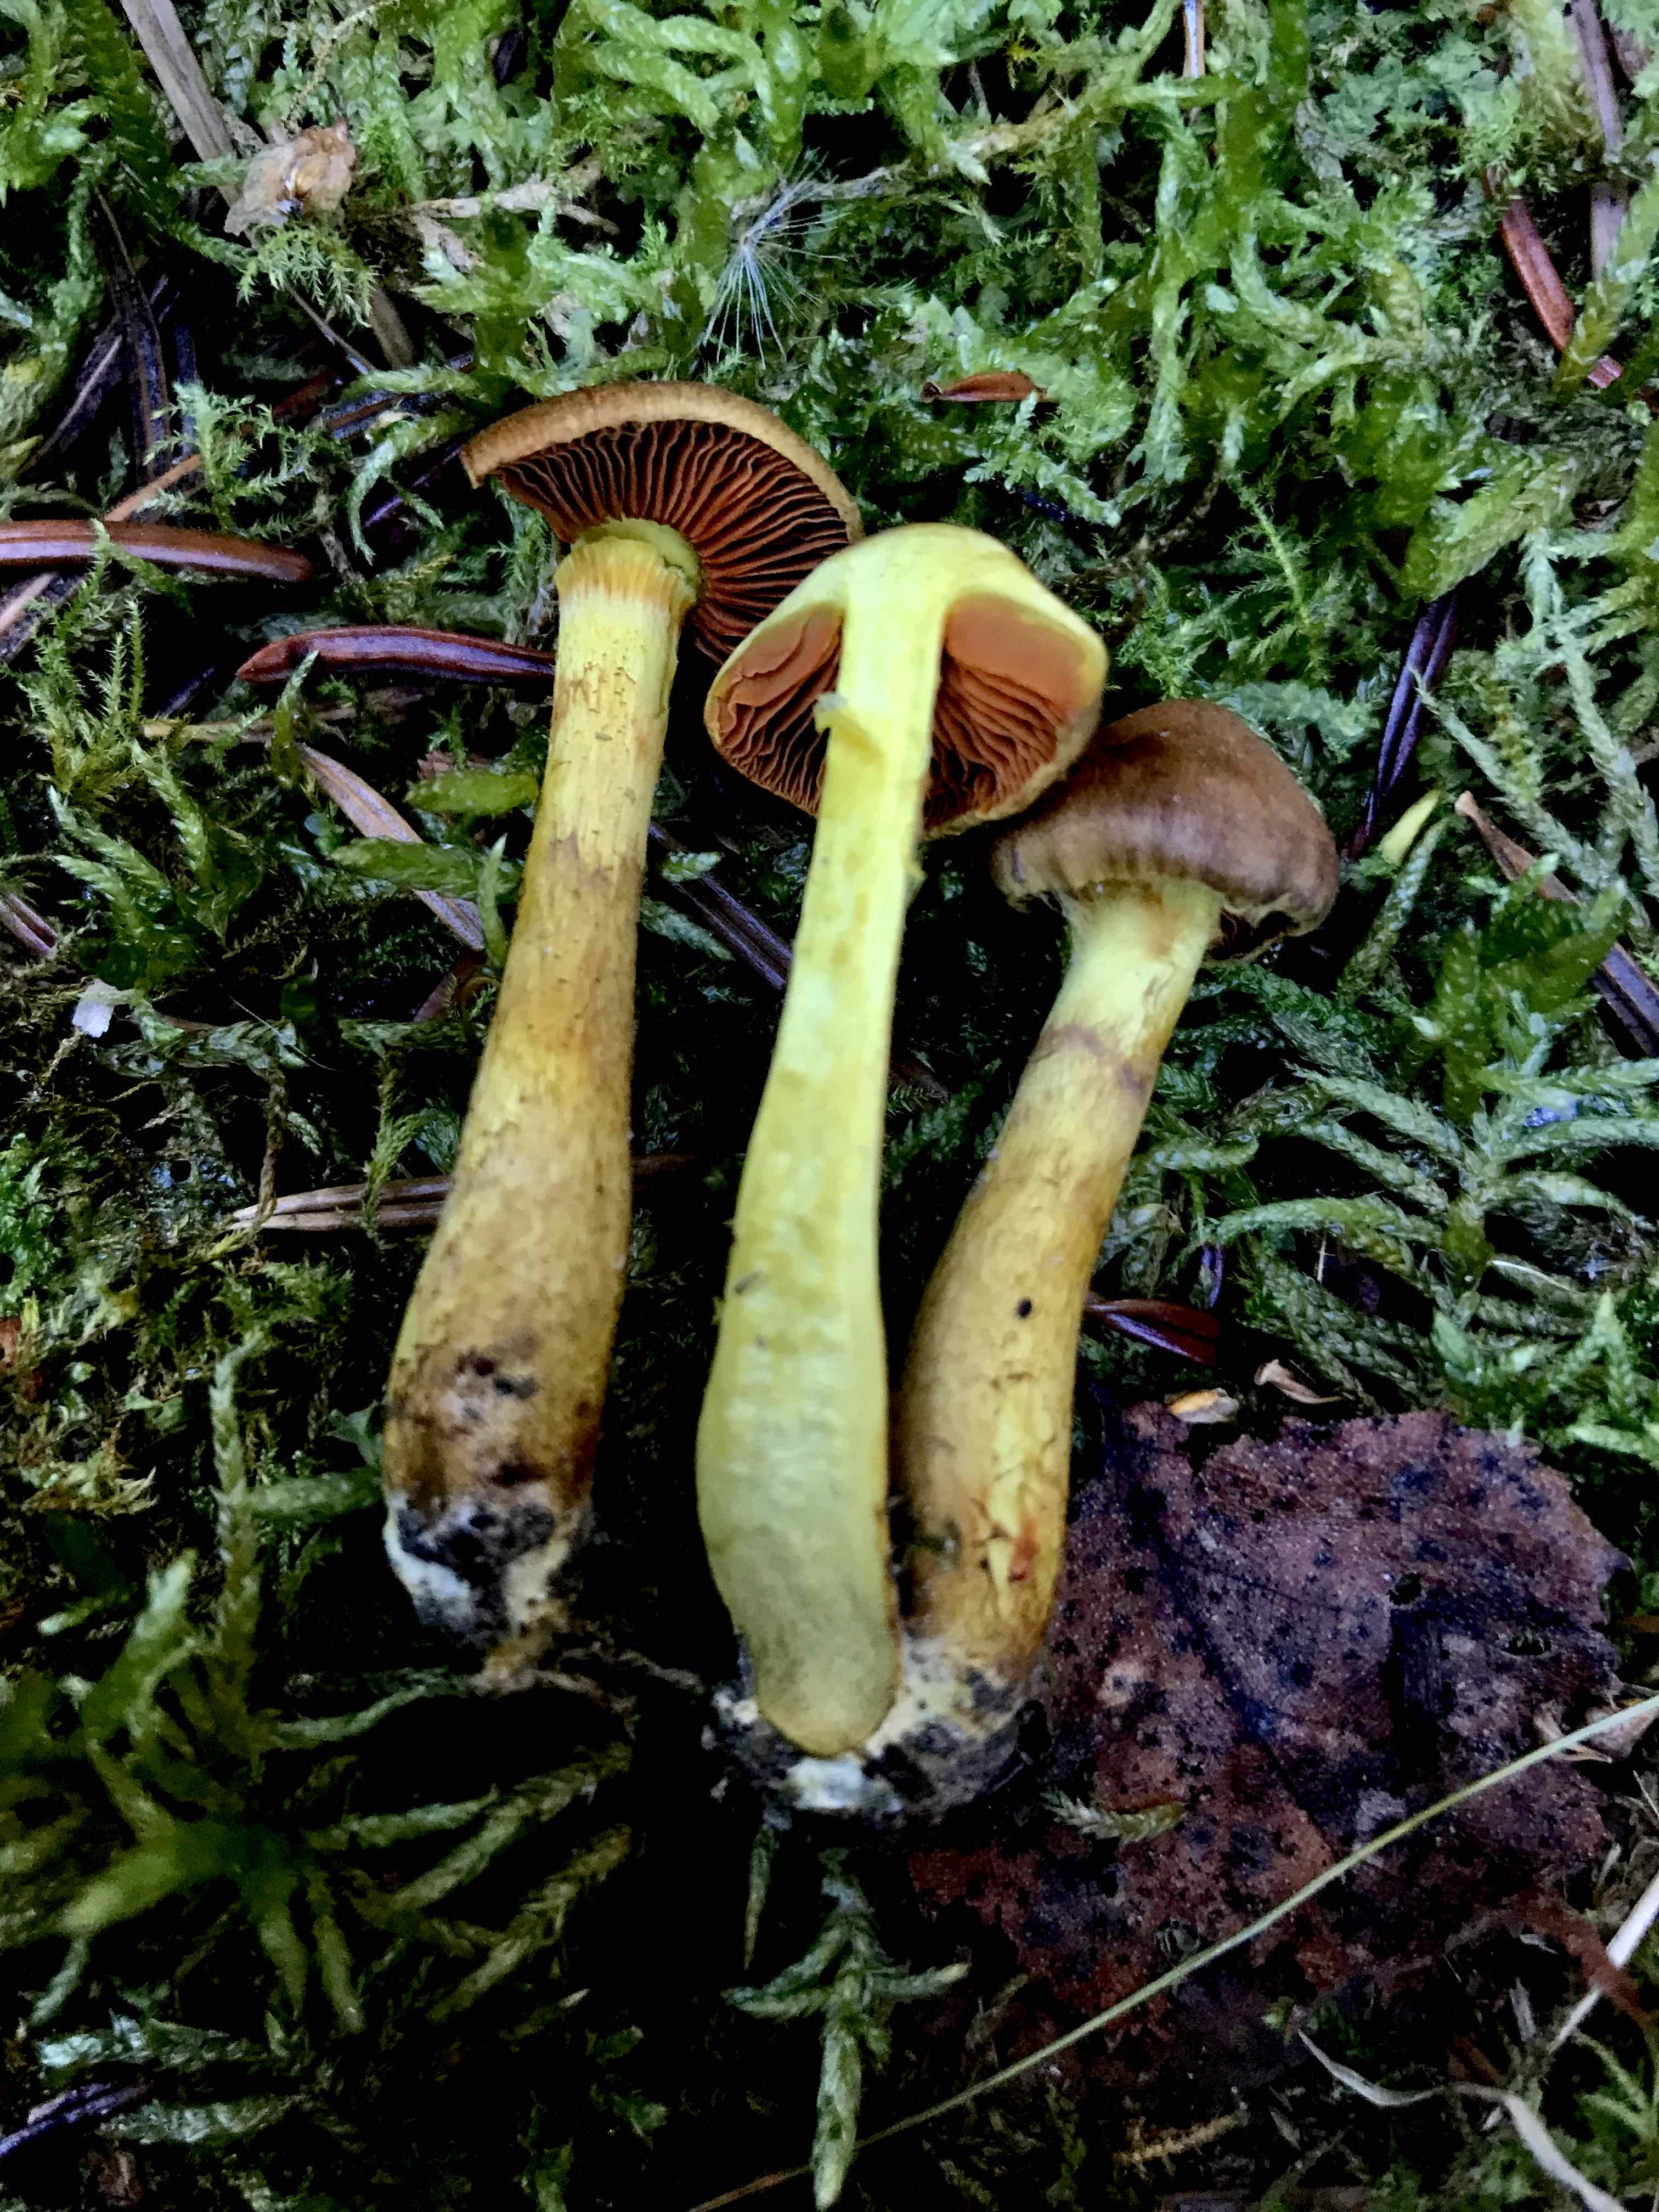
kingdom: Fungi
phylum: Basidiomycota
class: Agaricomycetes
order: Agaricales
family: Cortinariaceae
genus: Cortinarius
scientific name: Cortinarius malicorius
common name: grønkødet slørhat
